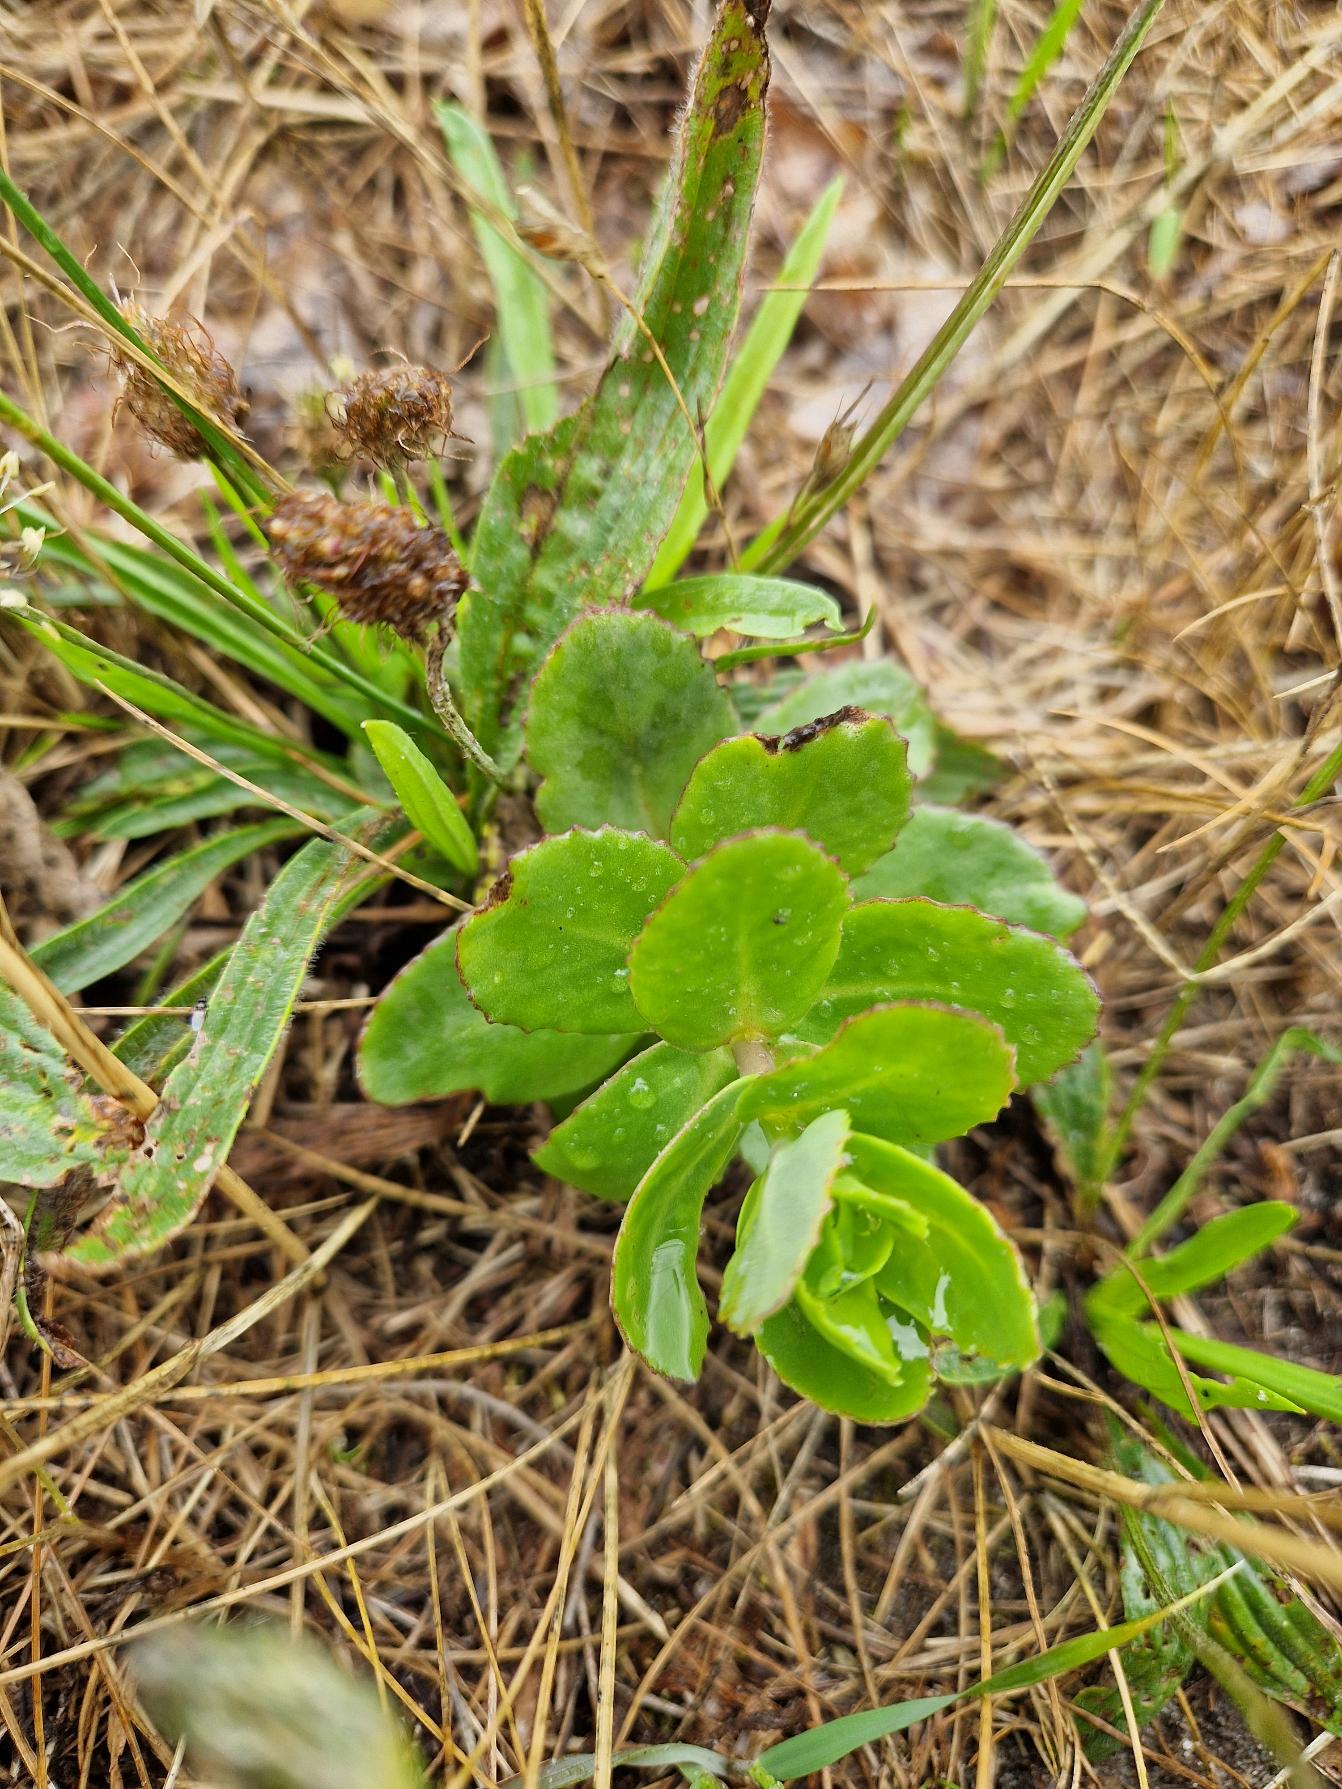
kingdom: Plantae
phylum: Tracheophyta
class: Magnoliopsida
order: Saxifragales
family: Crassulaceae
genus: Hylotelephium
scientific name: Hylotelephium maximum
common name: Almindelig sankthansurt
